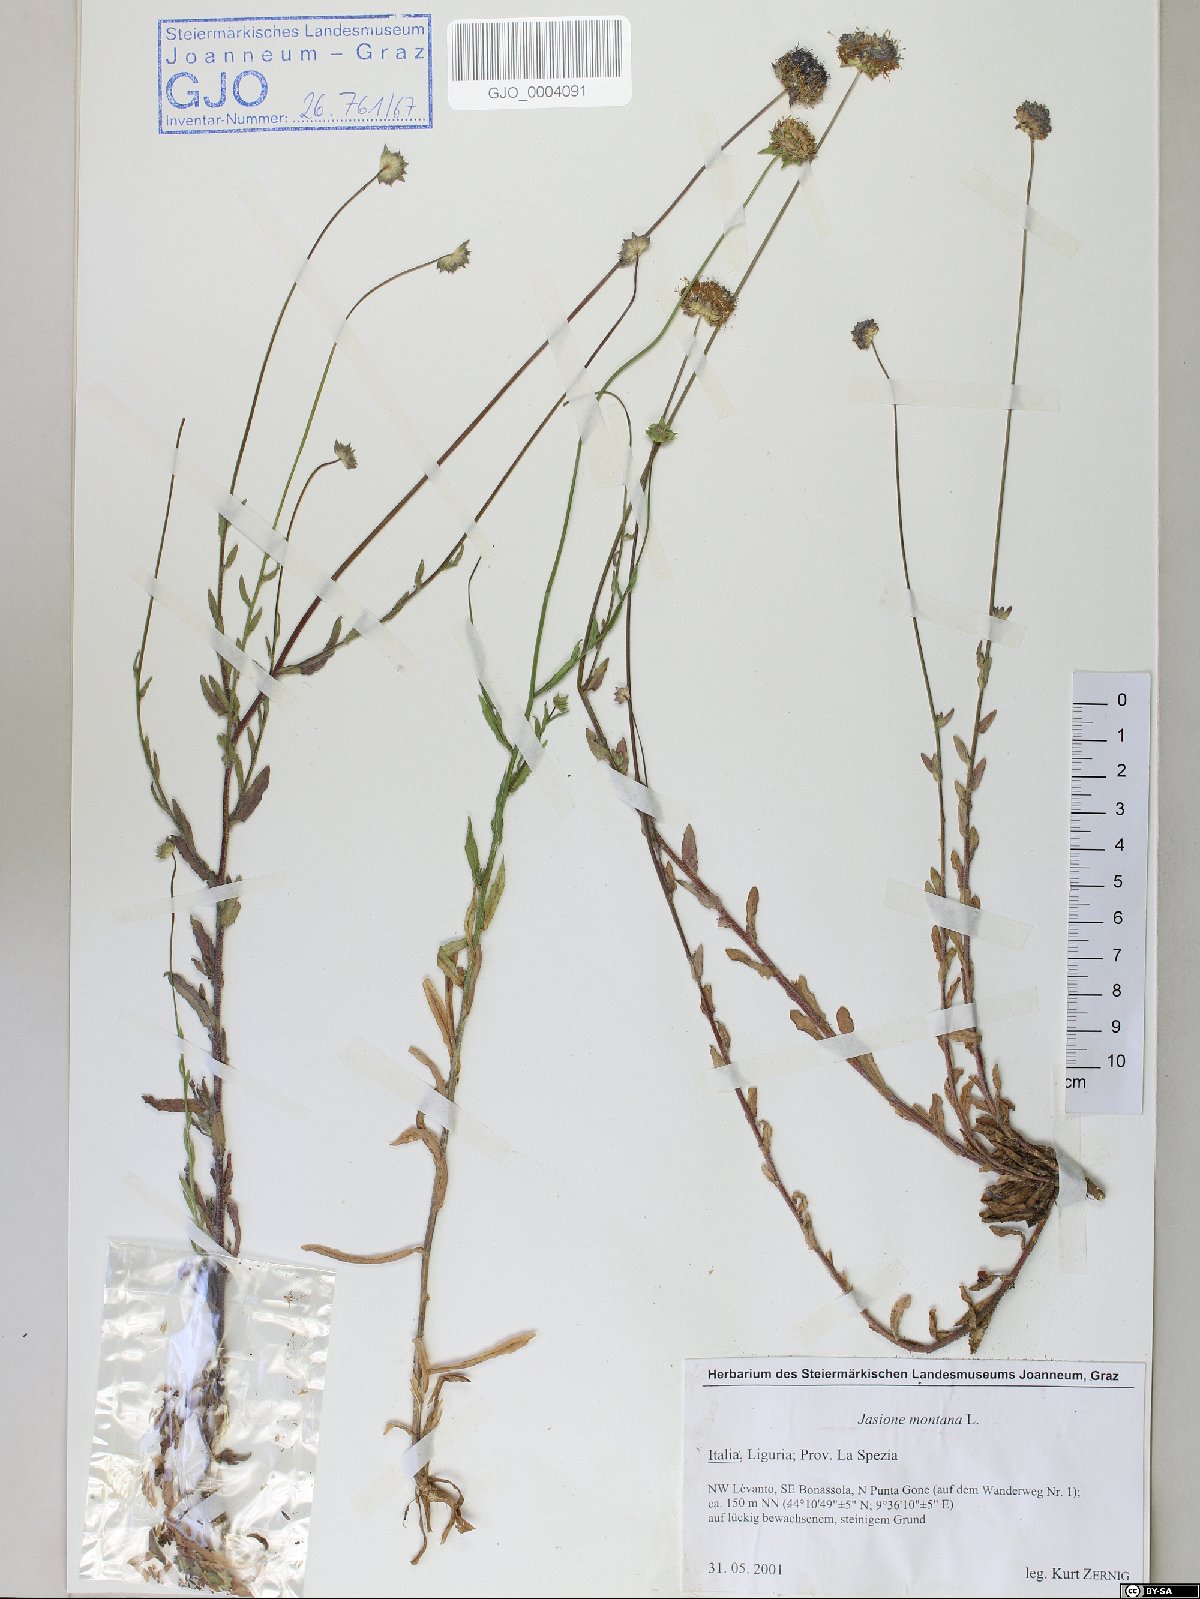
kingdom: Plantae
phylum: Tracheophyta
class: Magnoliopsida
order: Asterales
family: Campanulaceae
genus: Jasione
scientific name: Jasione montana
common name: Sheep's-bit
